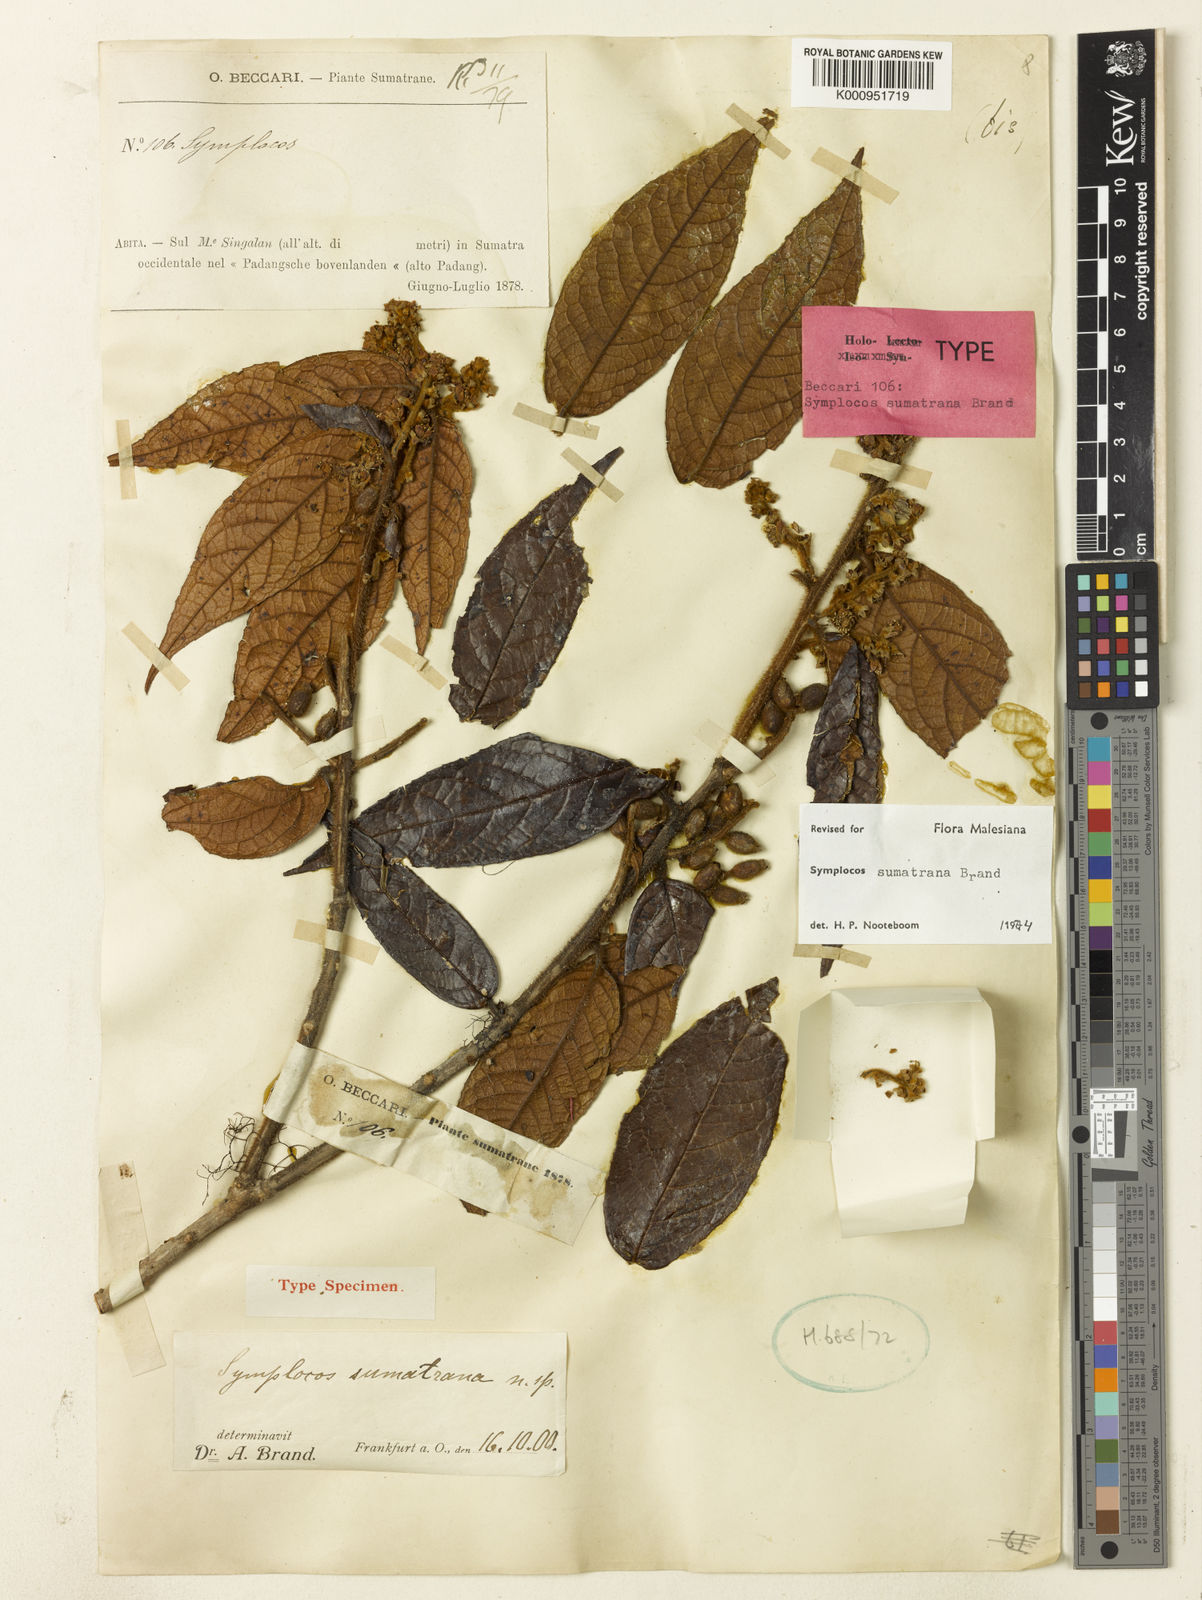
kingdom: Plantae
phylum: Tracheophyta
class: Magnoliopsida
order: Ericales
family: Symplocaceae
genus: Symplocos
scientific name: Symplocos sumatrana
